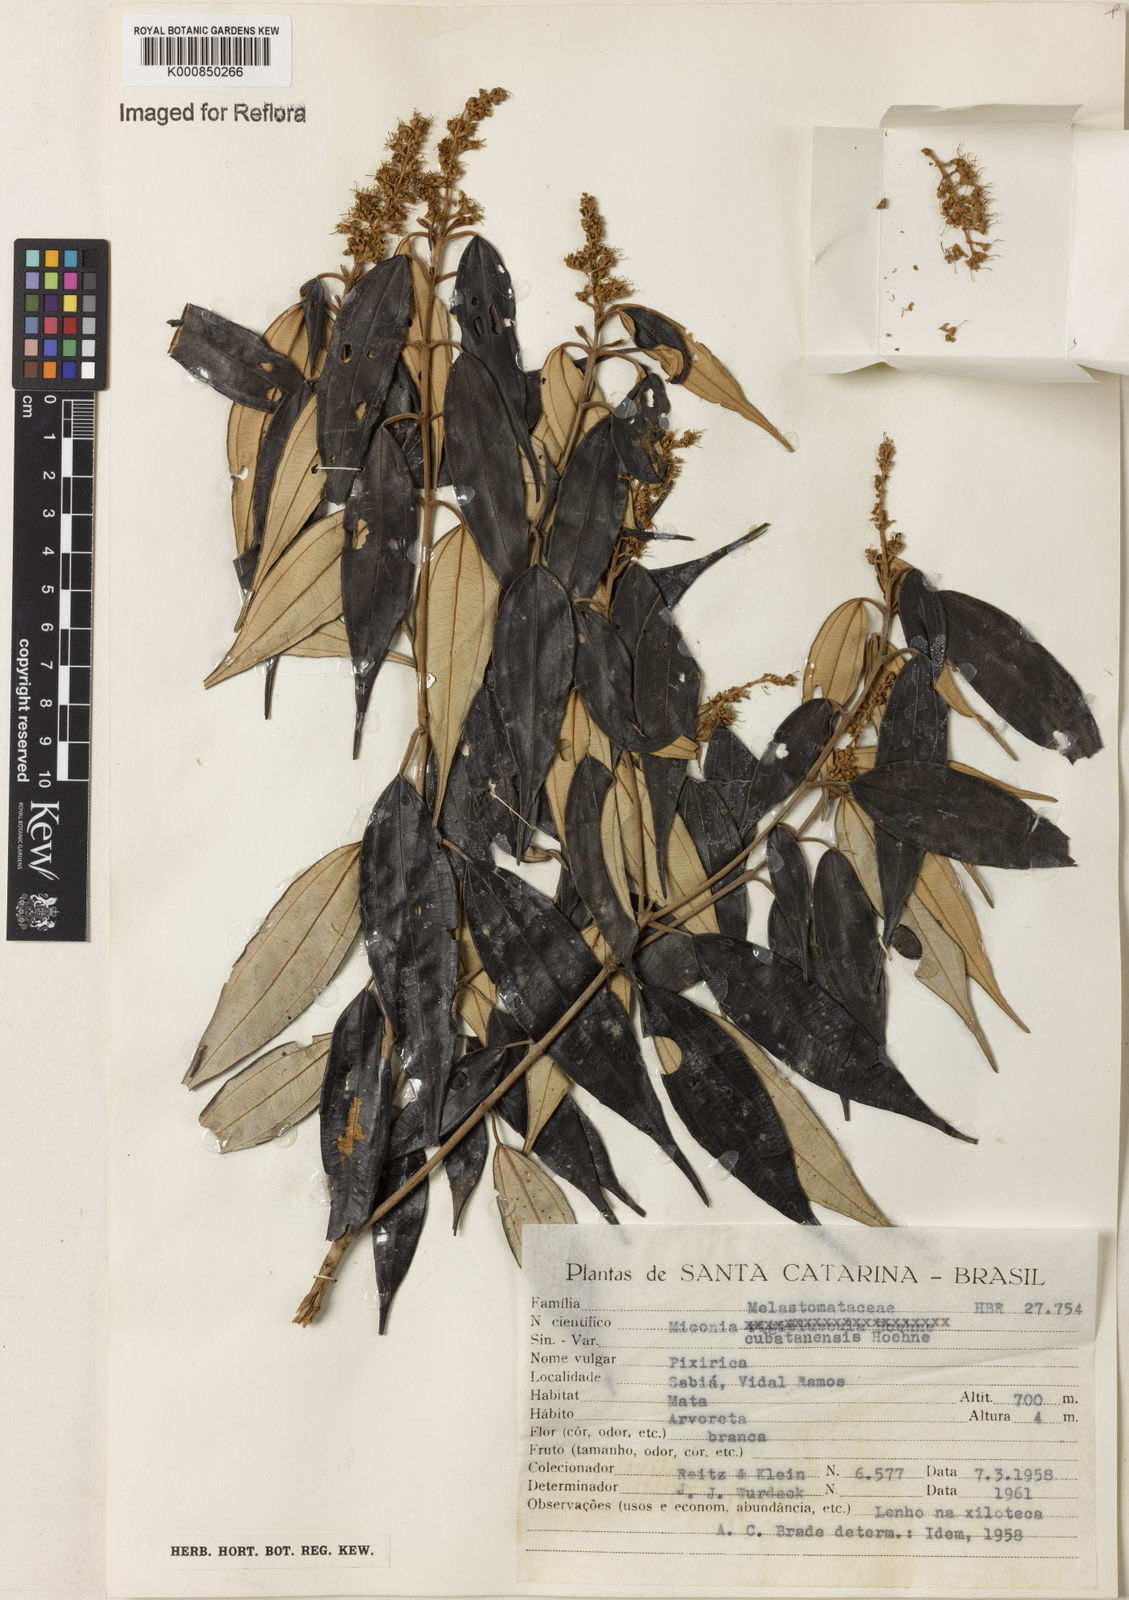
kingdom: Plantae
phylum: Tracheophyta
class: Magnoliopsida
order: Myrtales
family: Melastomataceae
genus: Miconia
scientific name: Miconia cubatanensis
